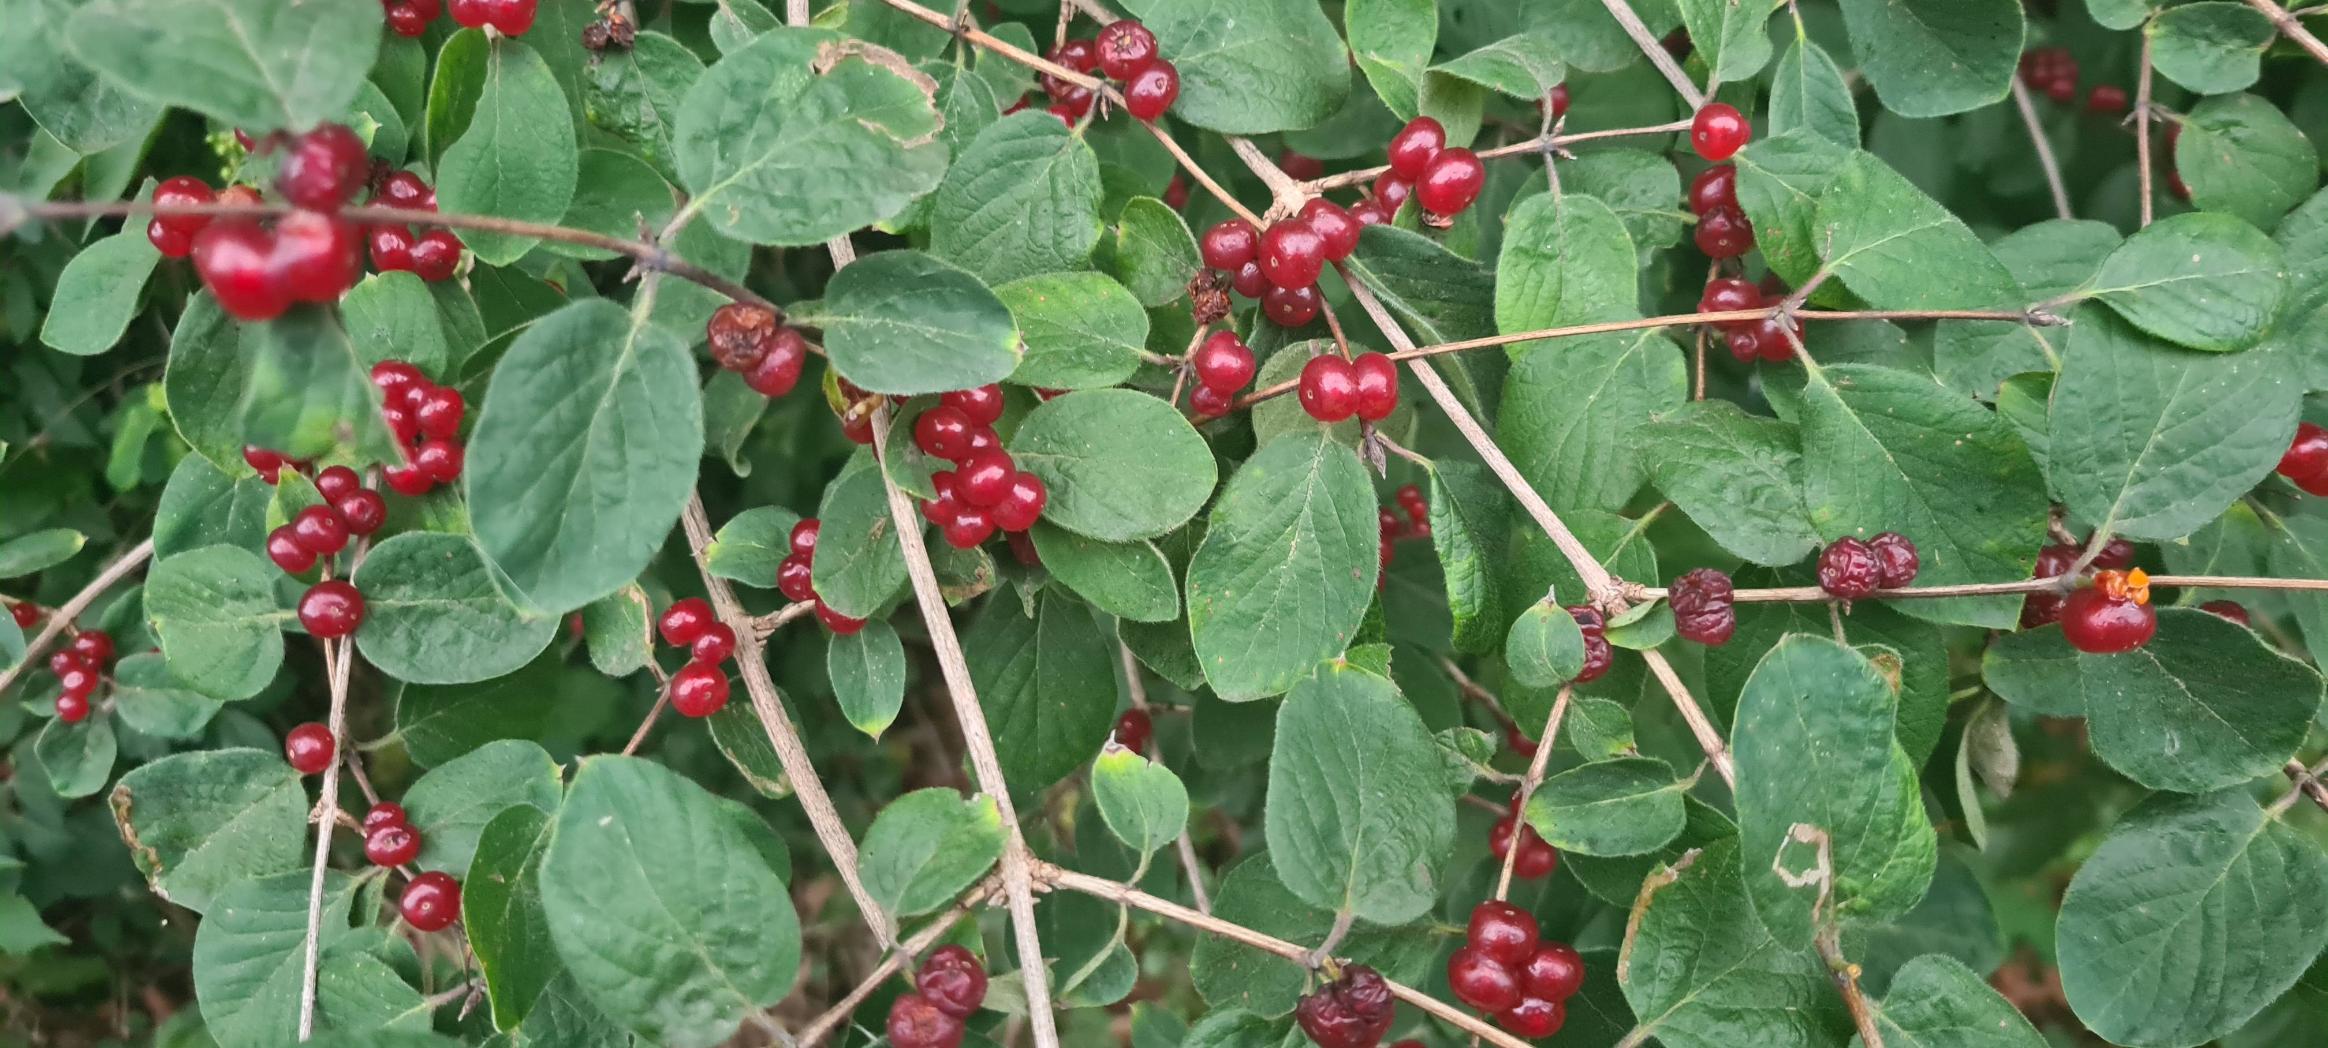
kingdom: Plantae
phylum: Tracheophyta
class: Magnoliopsida
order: Dipsacales
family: Caprifoliaceae
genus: Lonicera
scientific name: Lonicera xylosteum
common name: Dunet gedeblad
